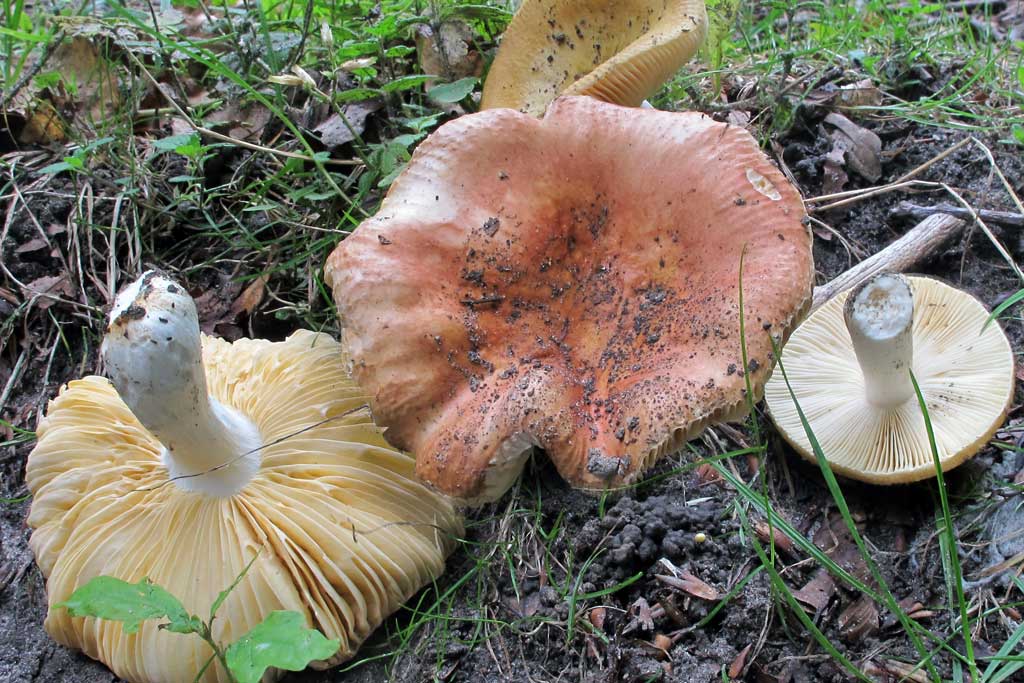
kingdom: Fungi
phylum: Basidiomycota
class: Agaricomycetes
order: Russulales
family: Russulaceae
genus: Russula
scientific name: Russula risigallina
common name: abrikos-skørhat
